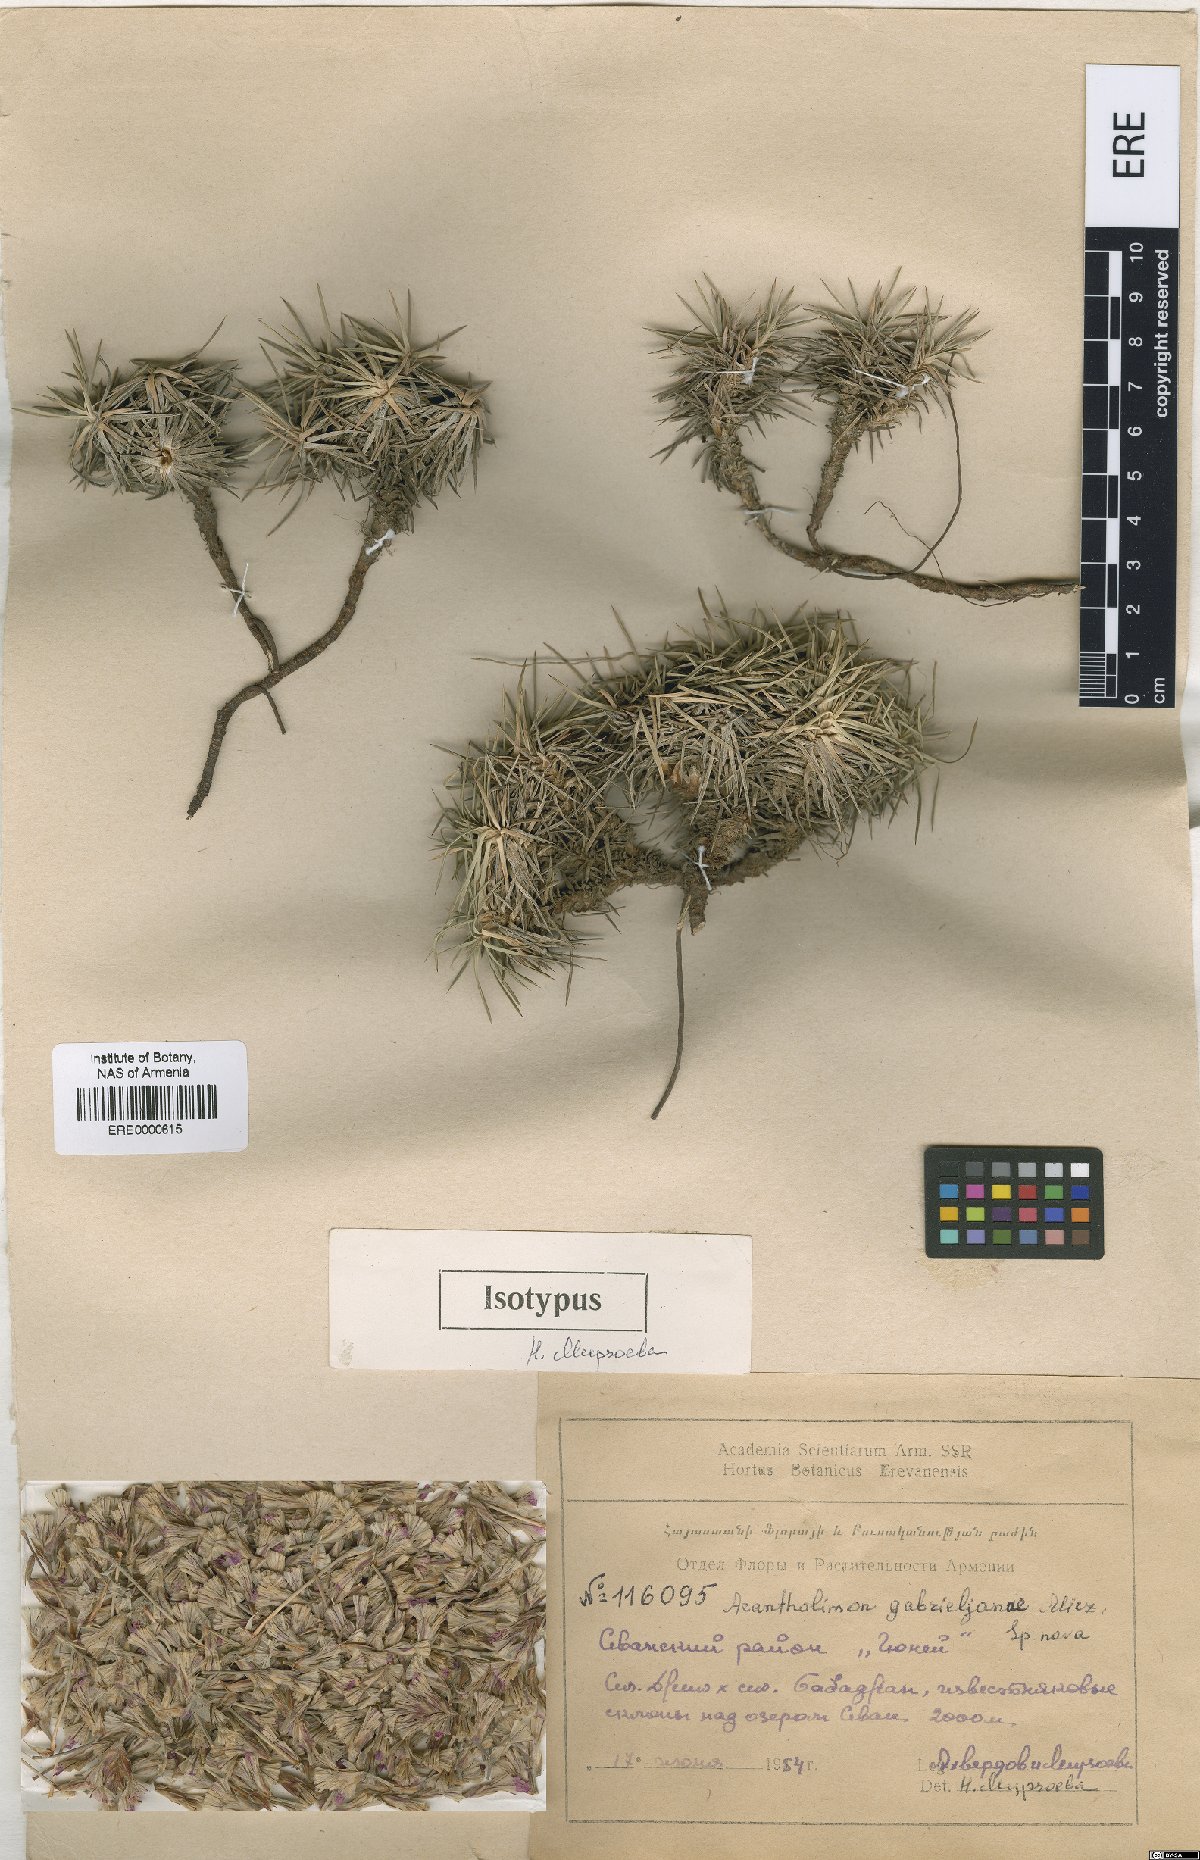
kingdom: Plantae
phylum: Tracheophyta
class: Magnoliopsida
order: Caryophyllales
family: Plumbaginaceae
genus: Acantholimon
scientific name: Acantholimon gabrieljaniae
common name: Gabrielyan's prickly-thrift
